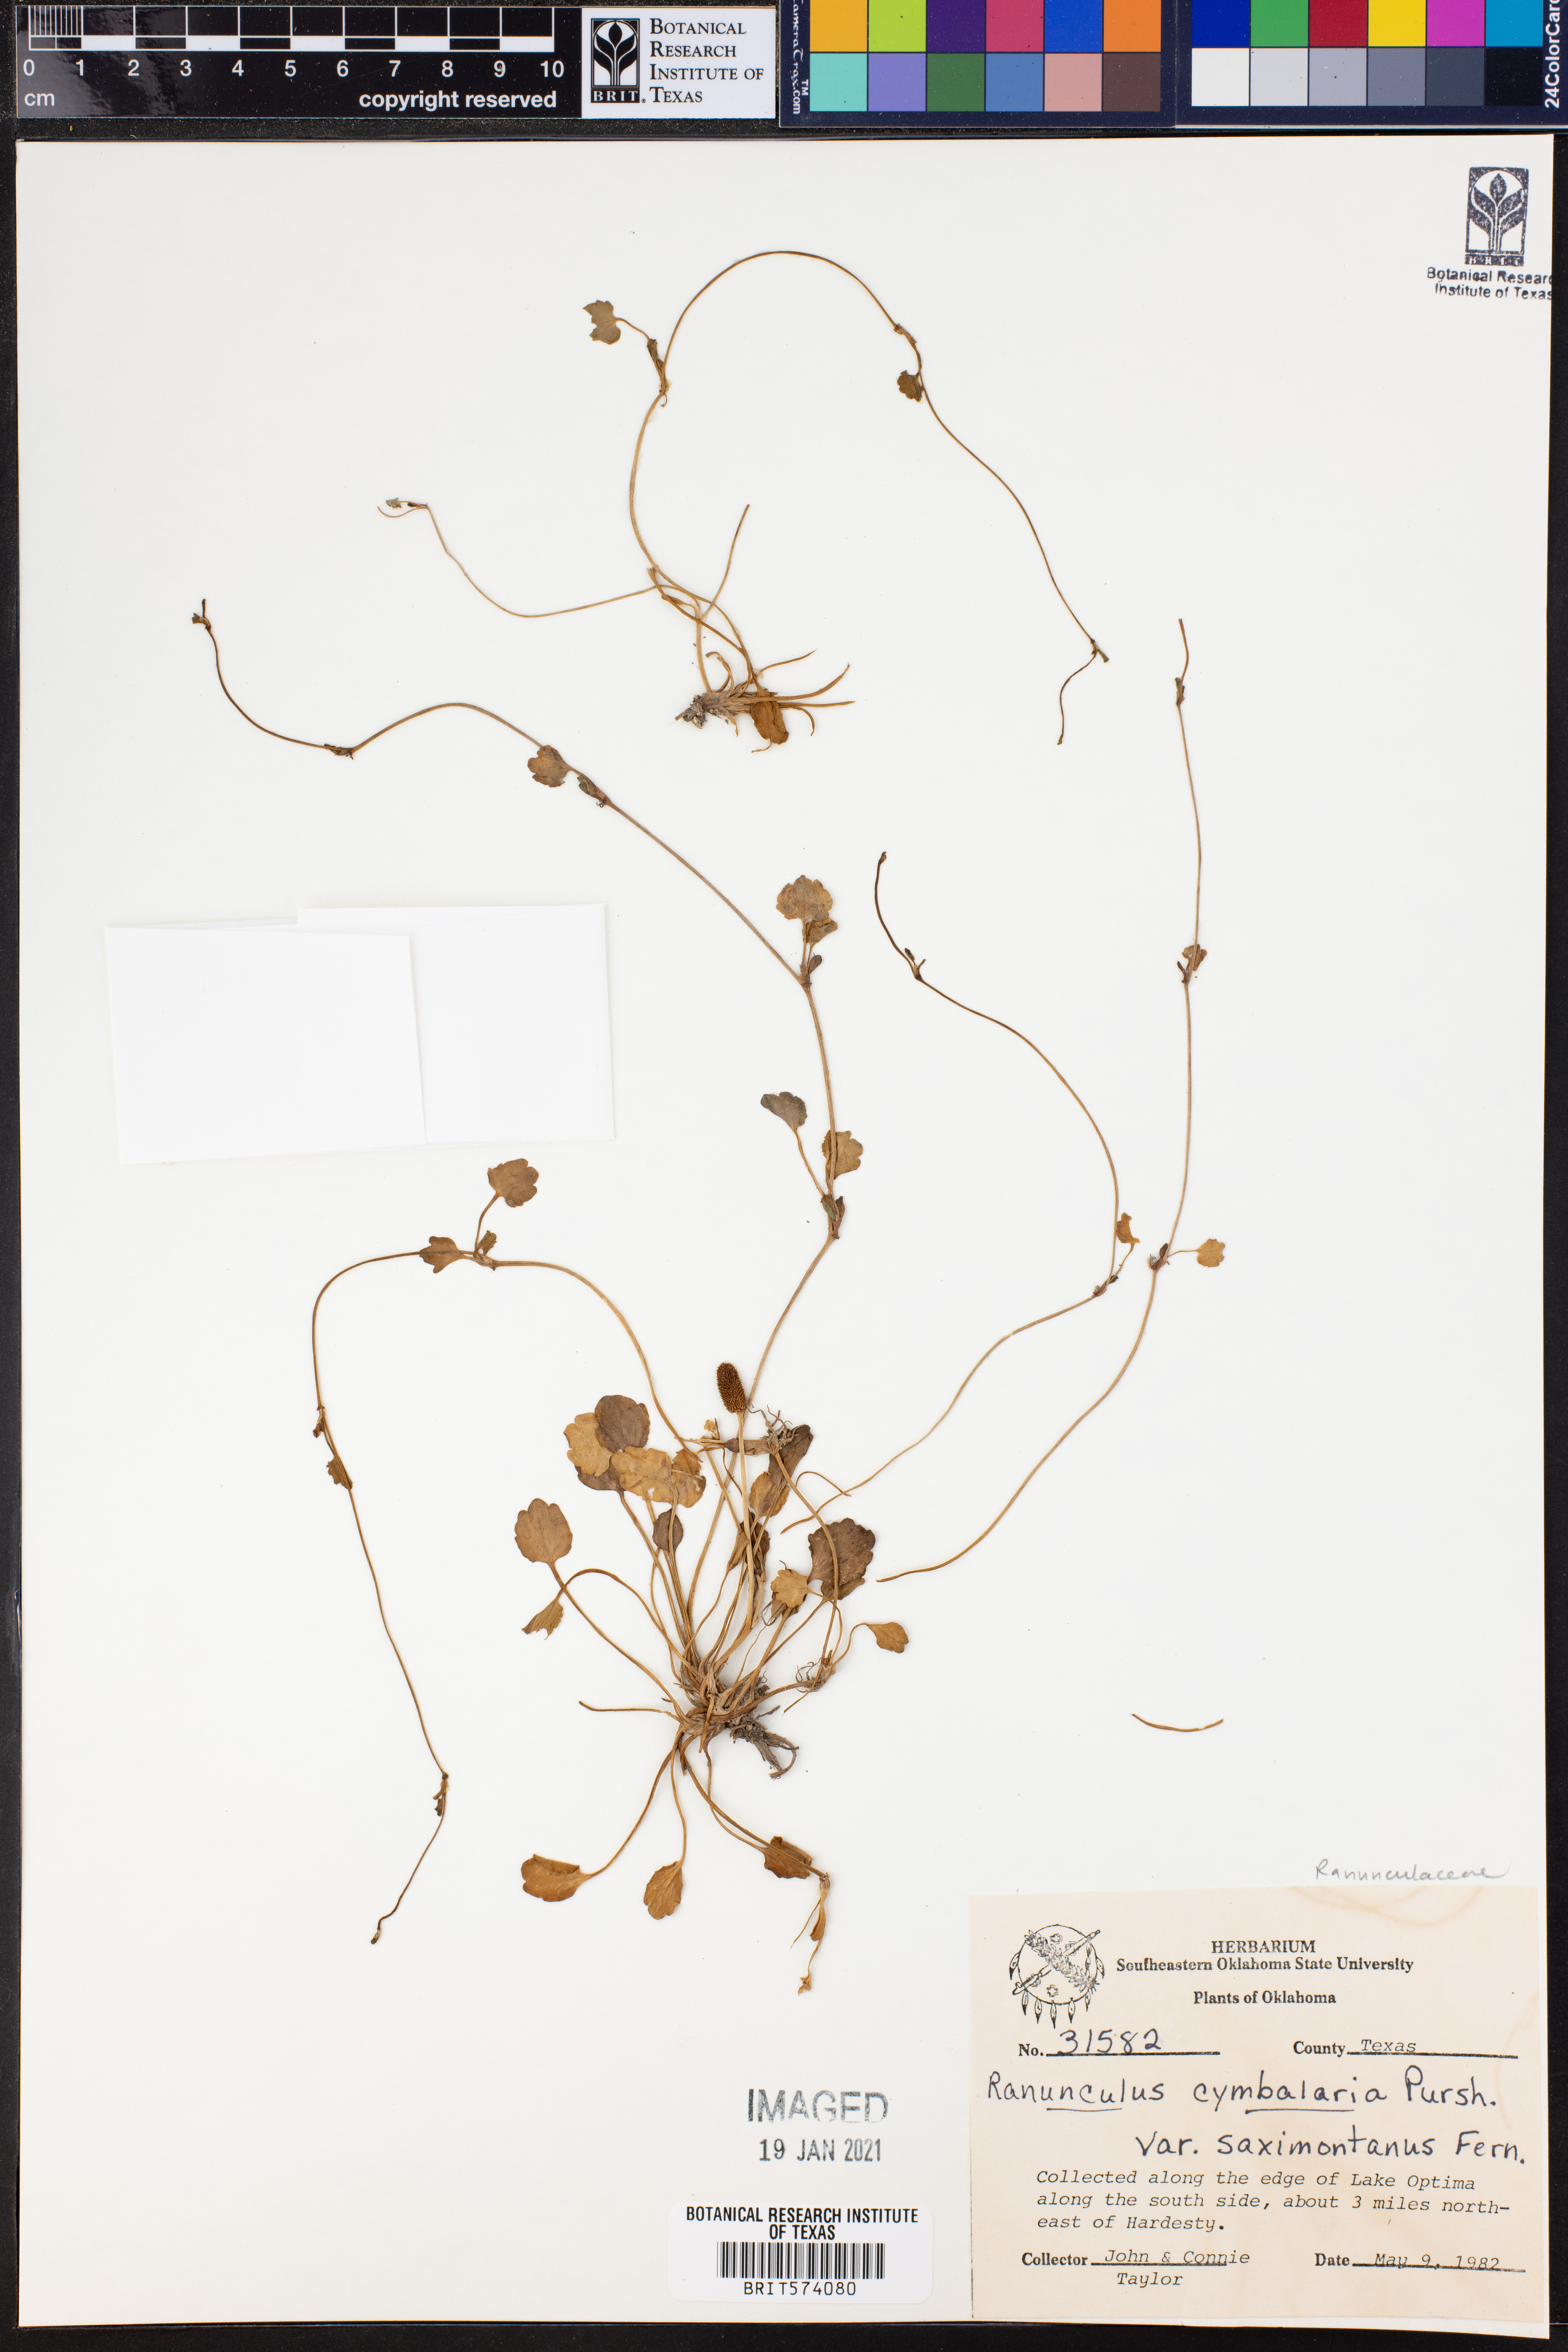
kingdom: Plantae
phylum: Tracheophyta
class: Magnoliopsida
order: Ranunculales
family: Ranunculaceae
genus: Halerpestes
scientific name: Halerpestes cymbalaria
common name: Seaside crowfoot
